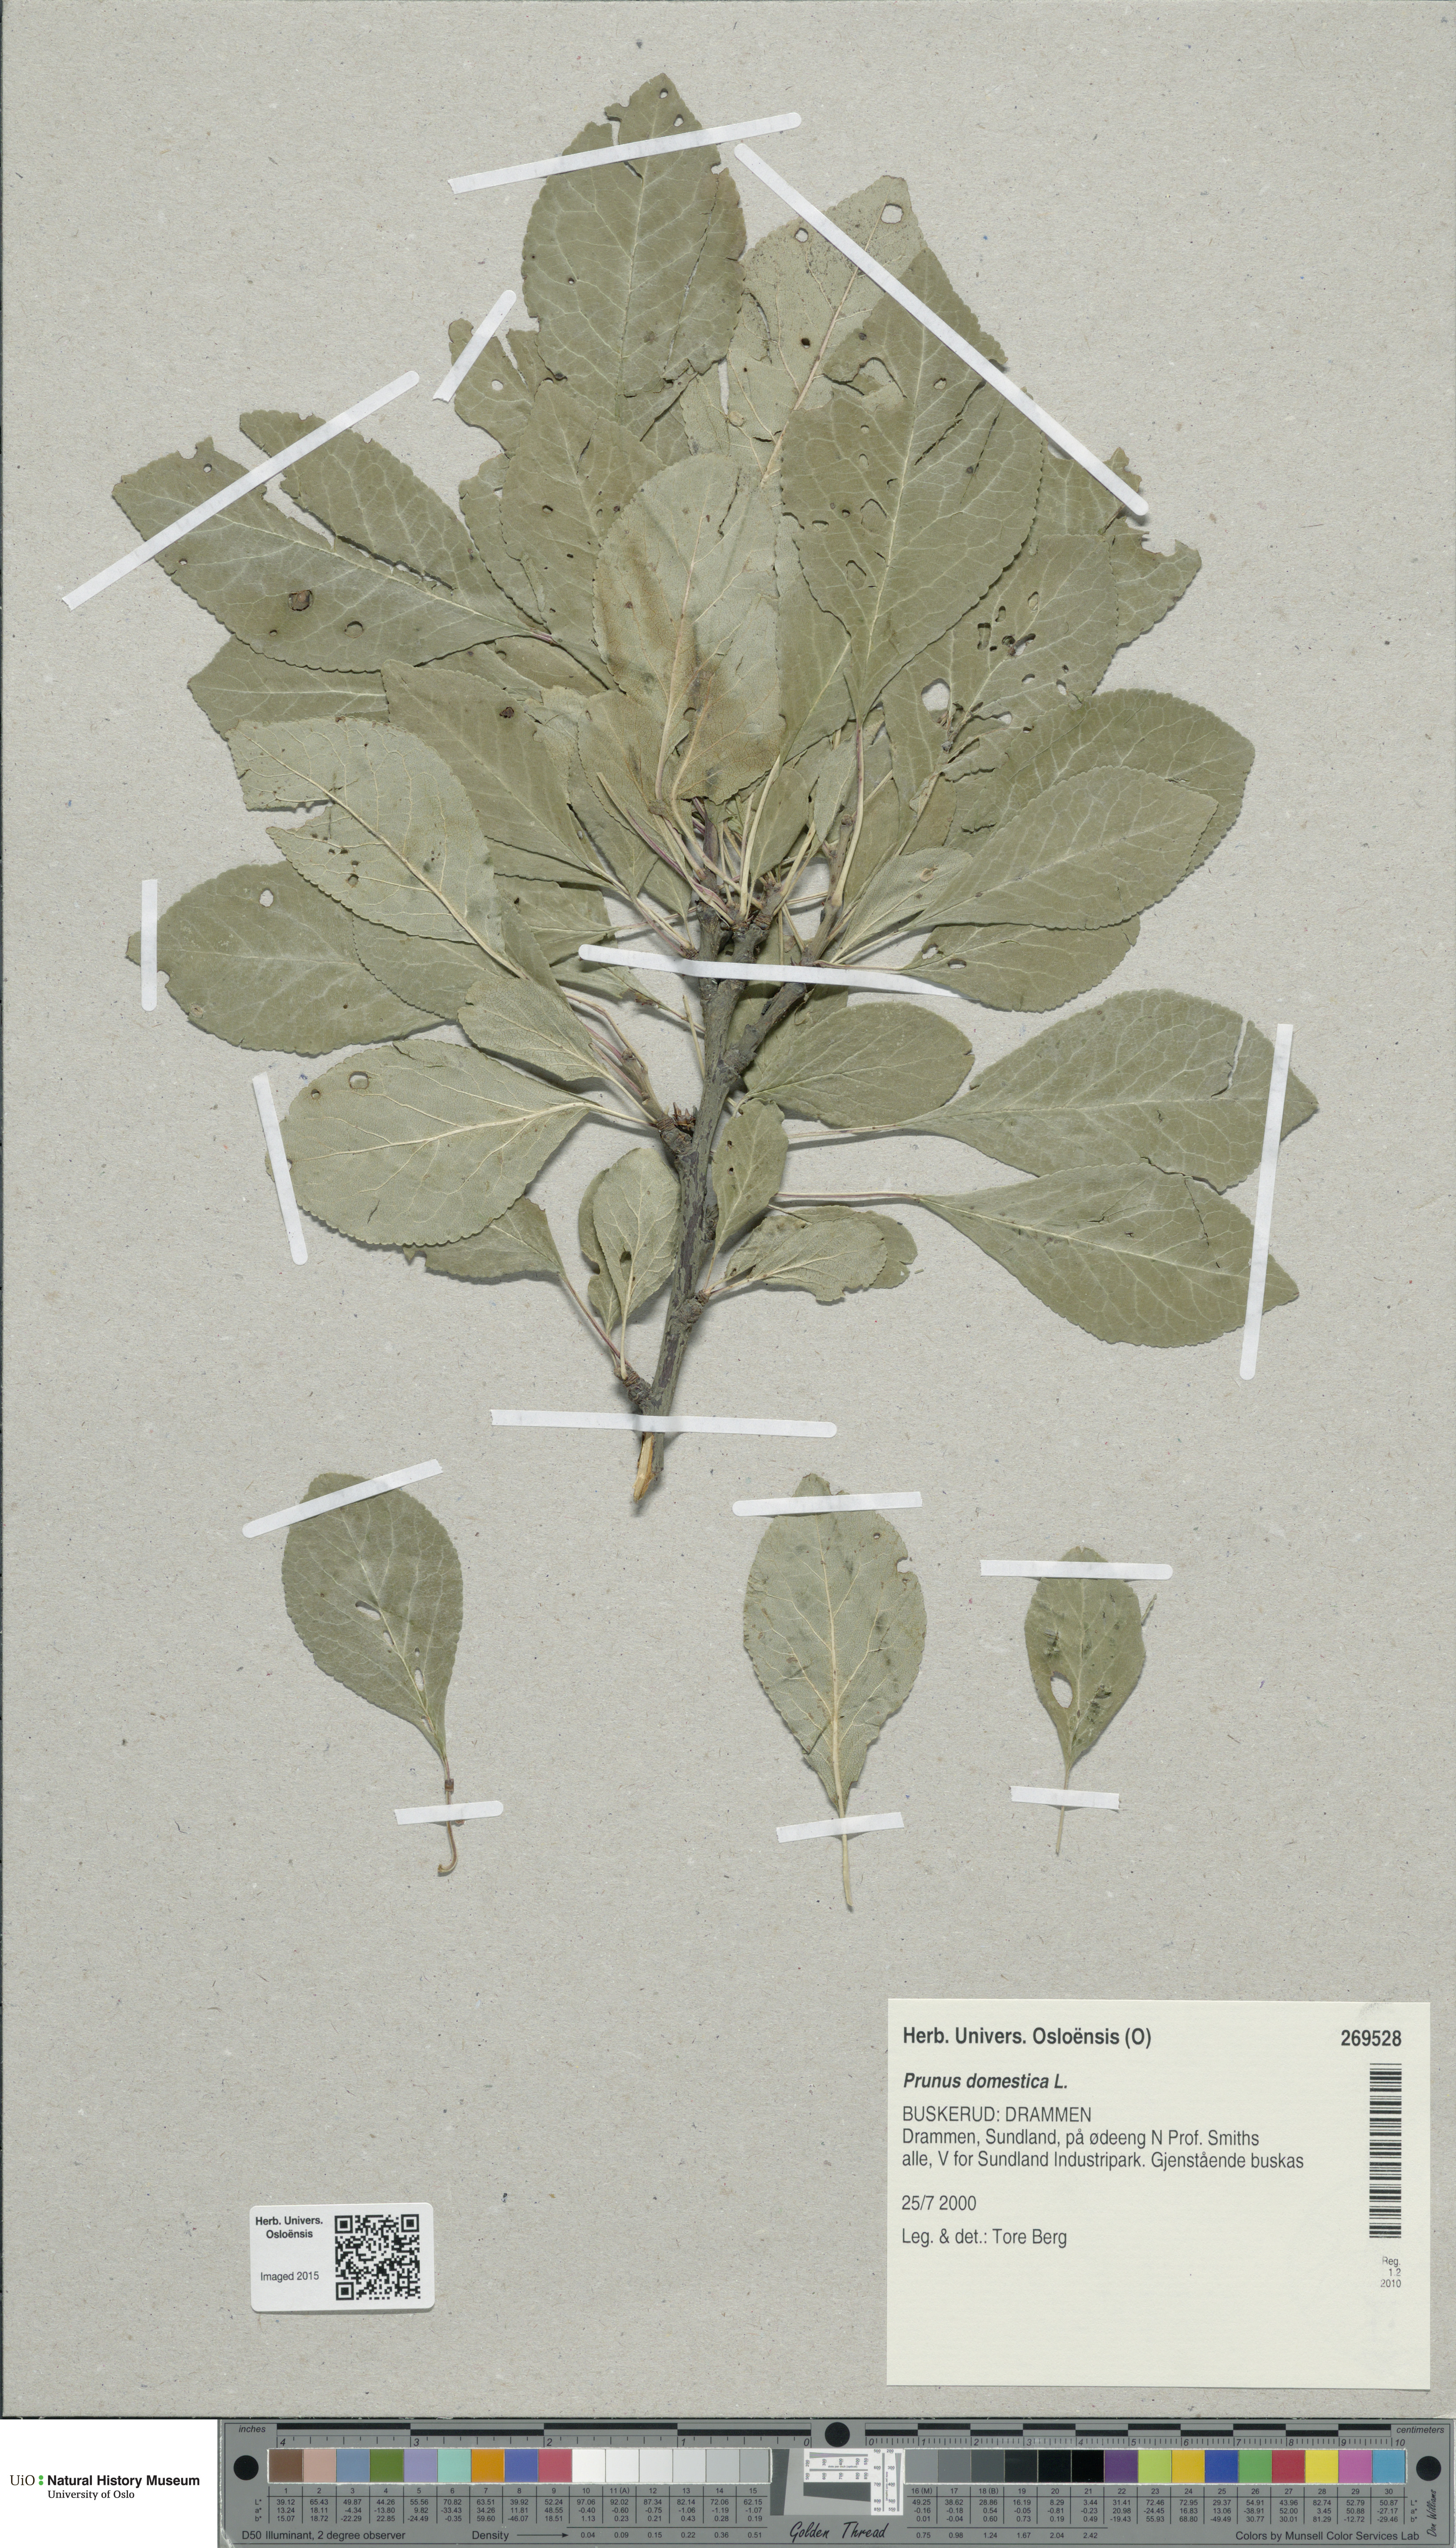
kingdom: Plantae
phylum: Tracheophyta
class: Magnoliopsida
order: Rosales
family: Rosaceae
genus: Prunus
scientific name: Prunus domestica
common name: Wild plum
